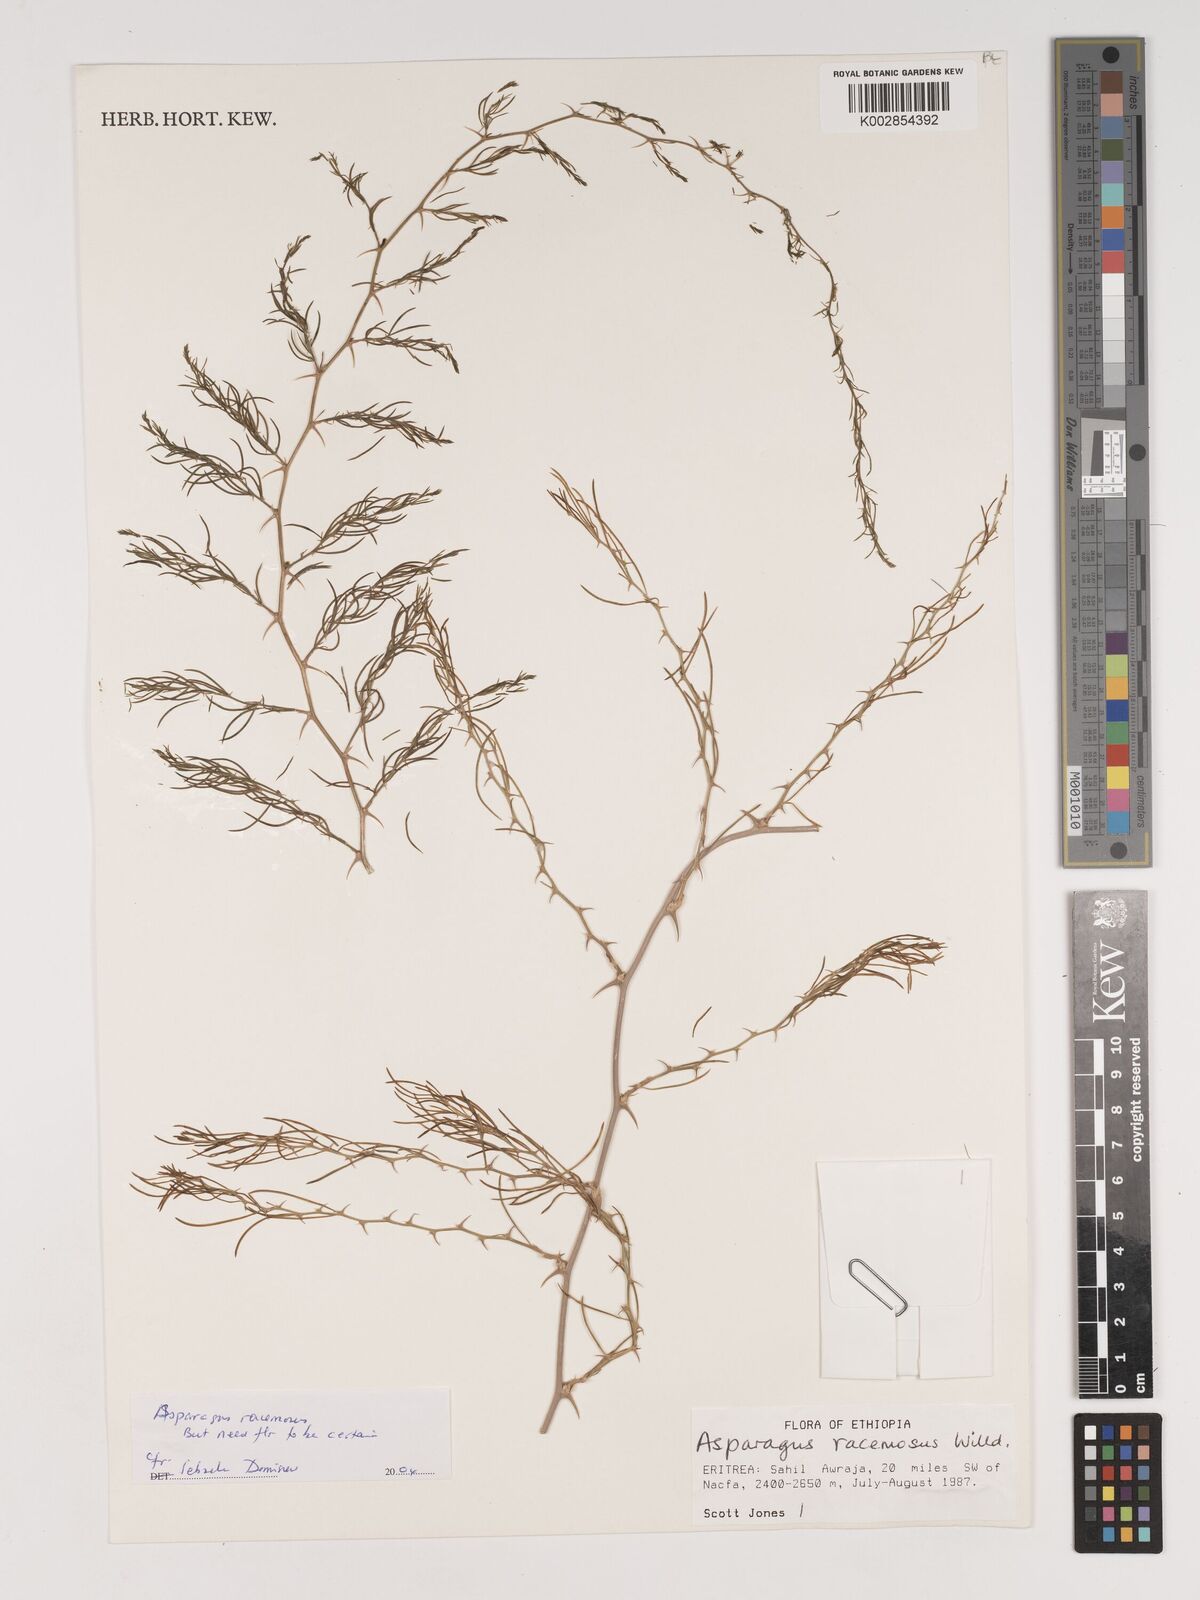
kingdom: Plantae
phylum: Tracheophyta
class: Liliopsida
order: Asparagales
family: Asparagaceae
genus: Asparagus
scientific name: Asparagus racemosus
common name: Asparagus-fern
